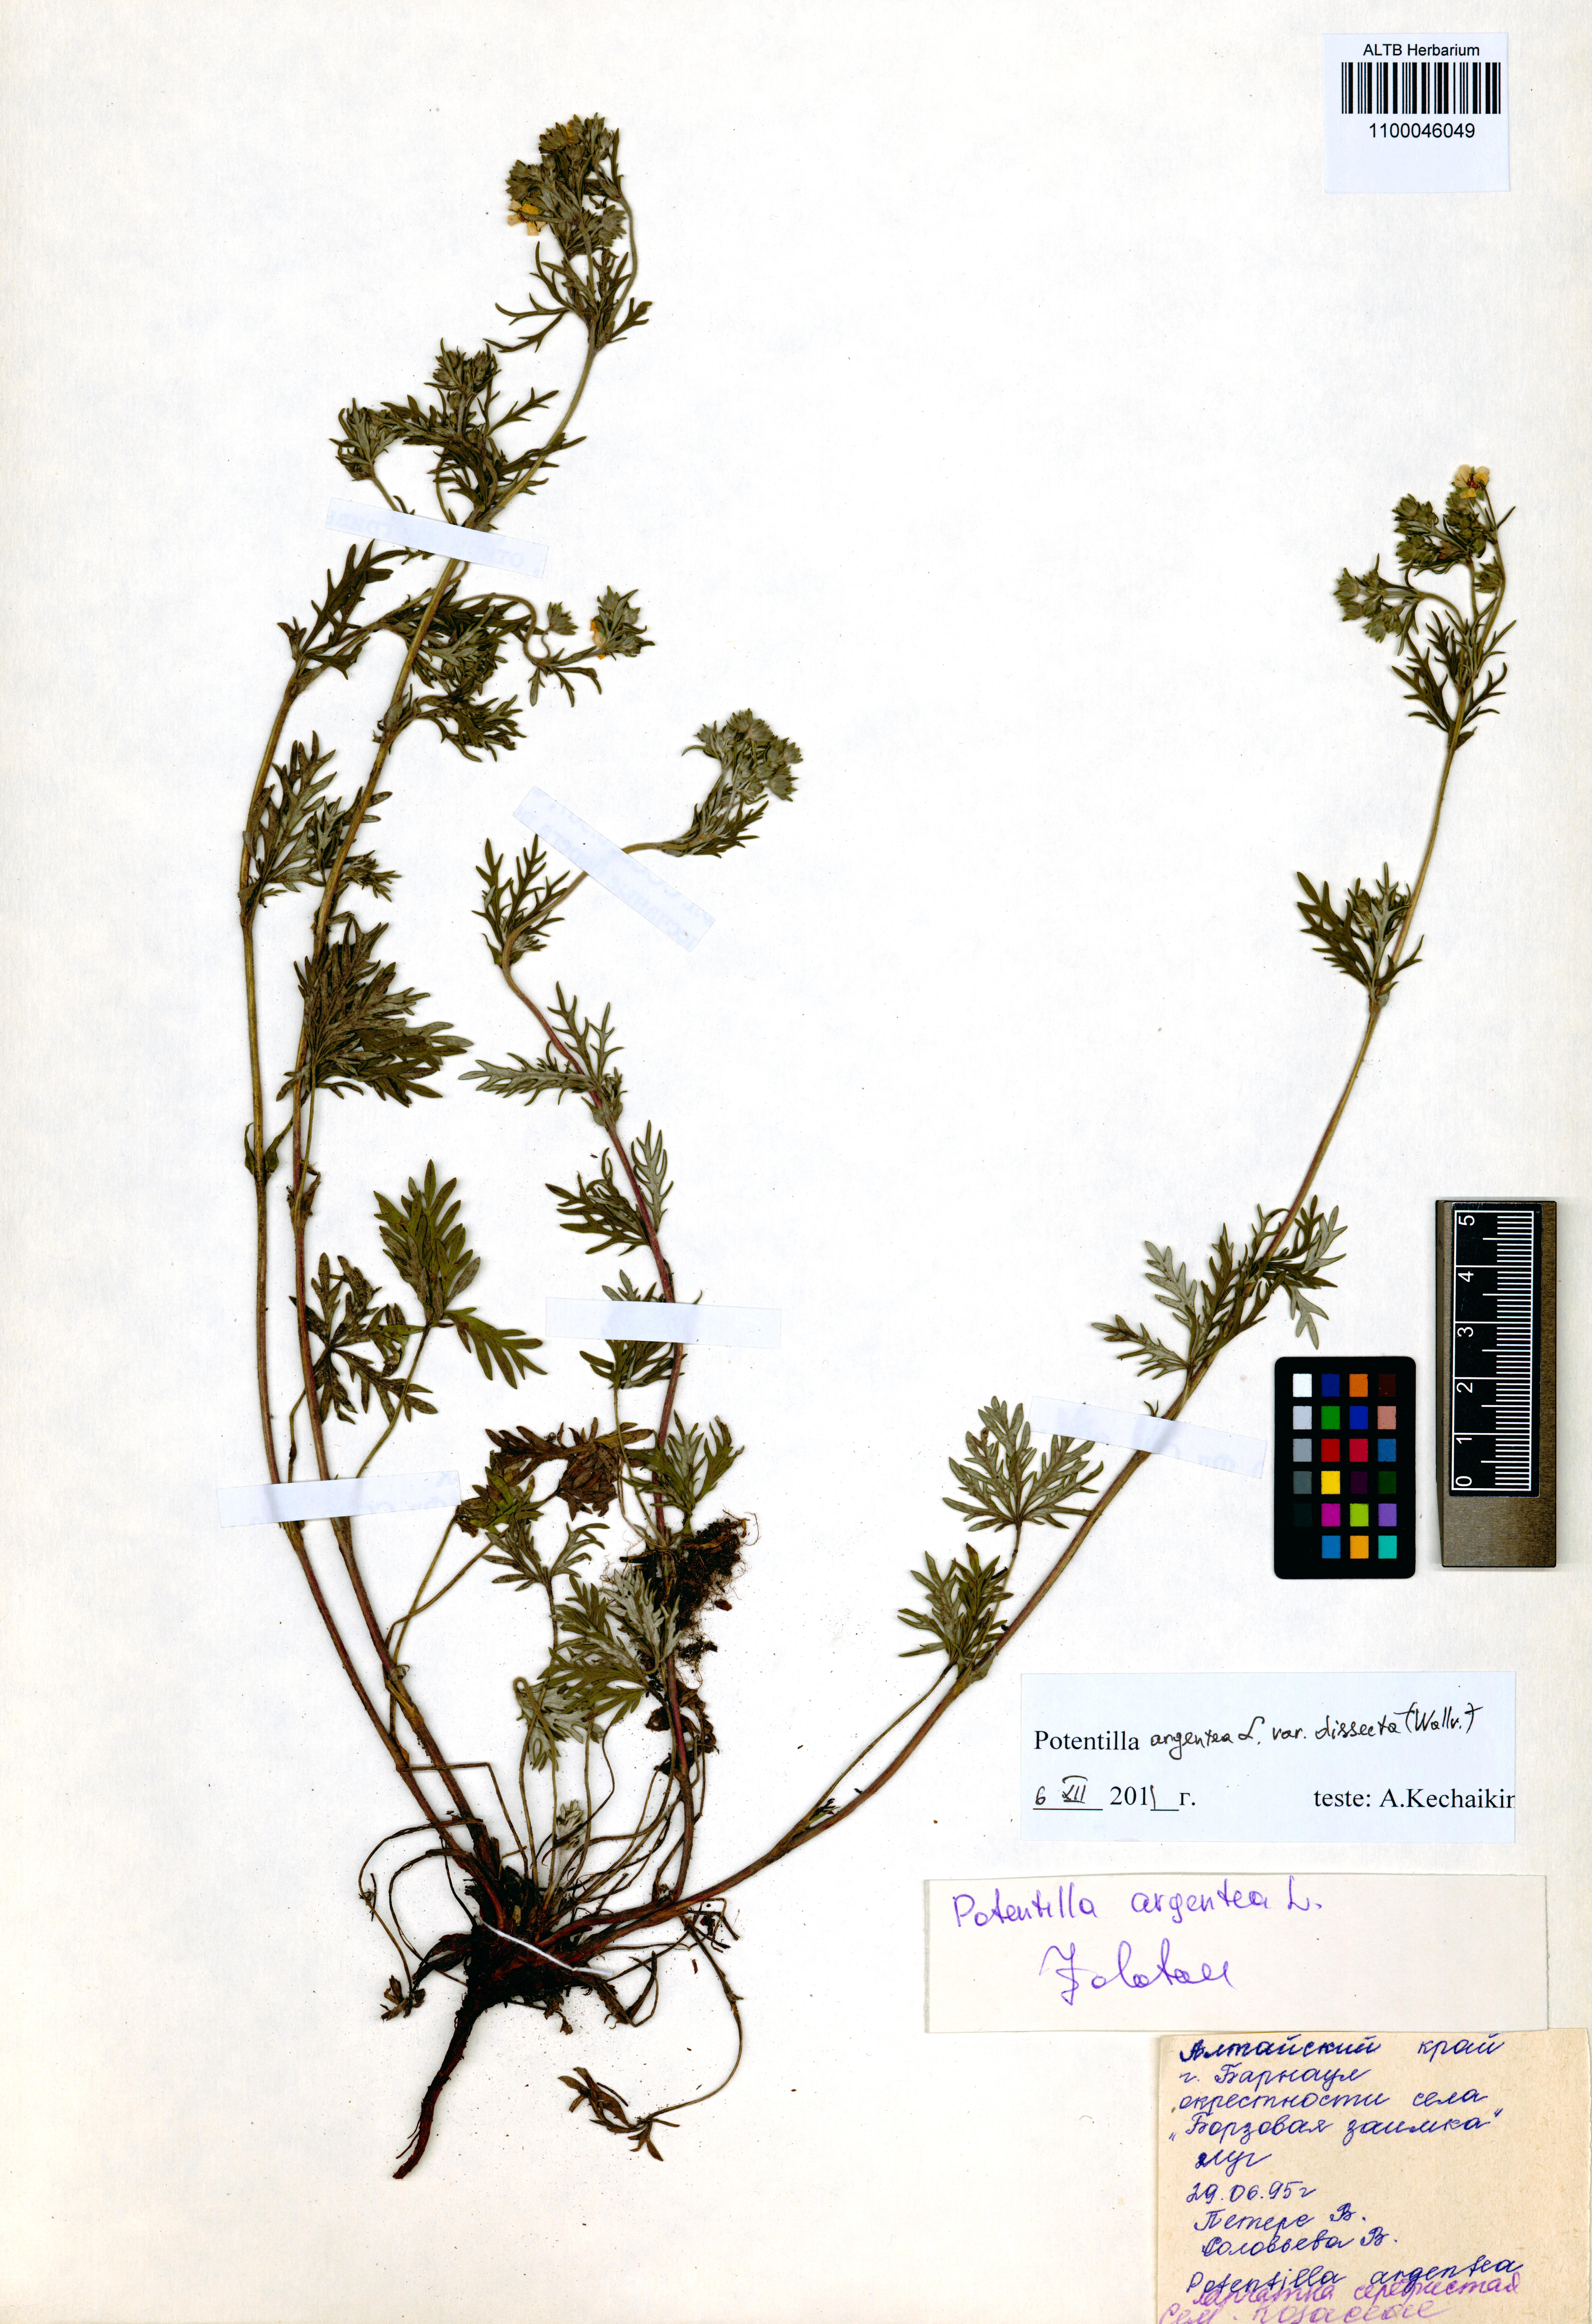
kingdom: Plantae
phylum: Tracheophyta
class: Magnoliopsida
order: Rosales
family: Rosaceae
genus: Potentilla
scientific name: Potentilla argentea
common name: Hoary cinquefoil
